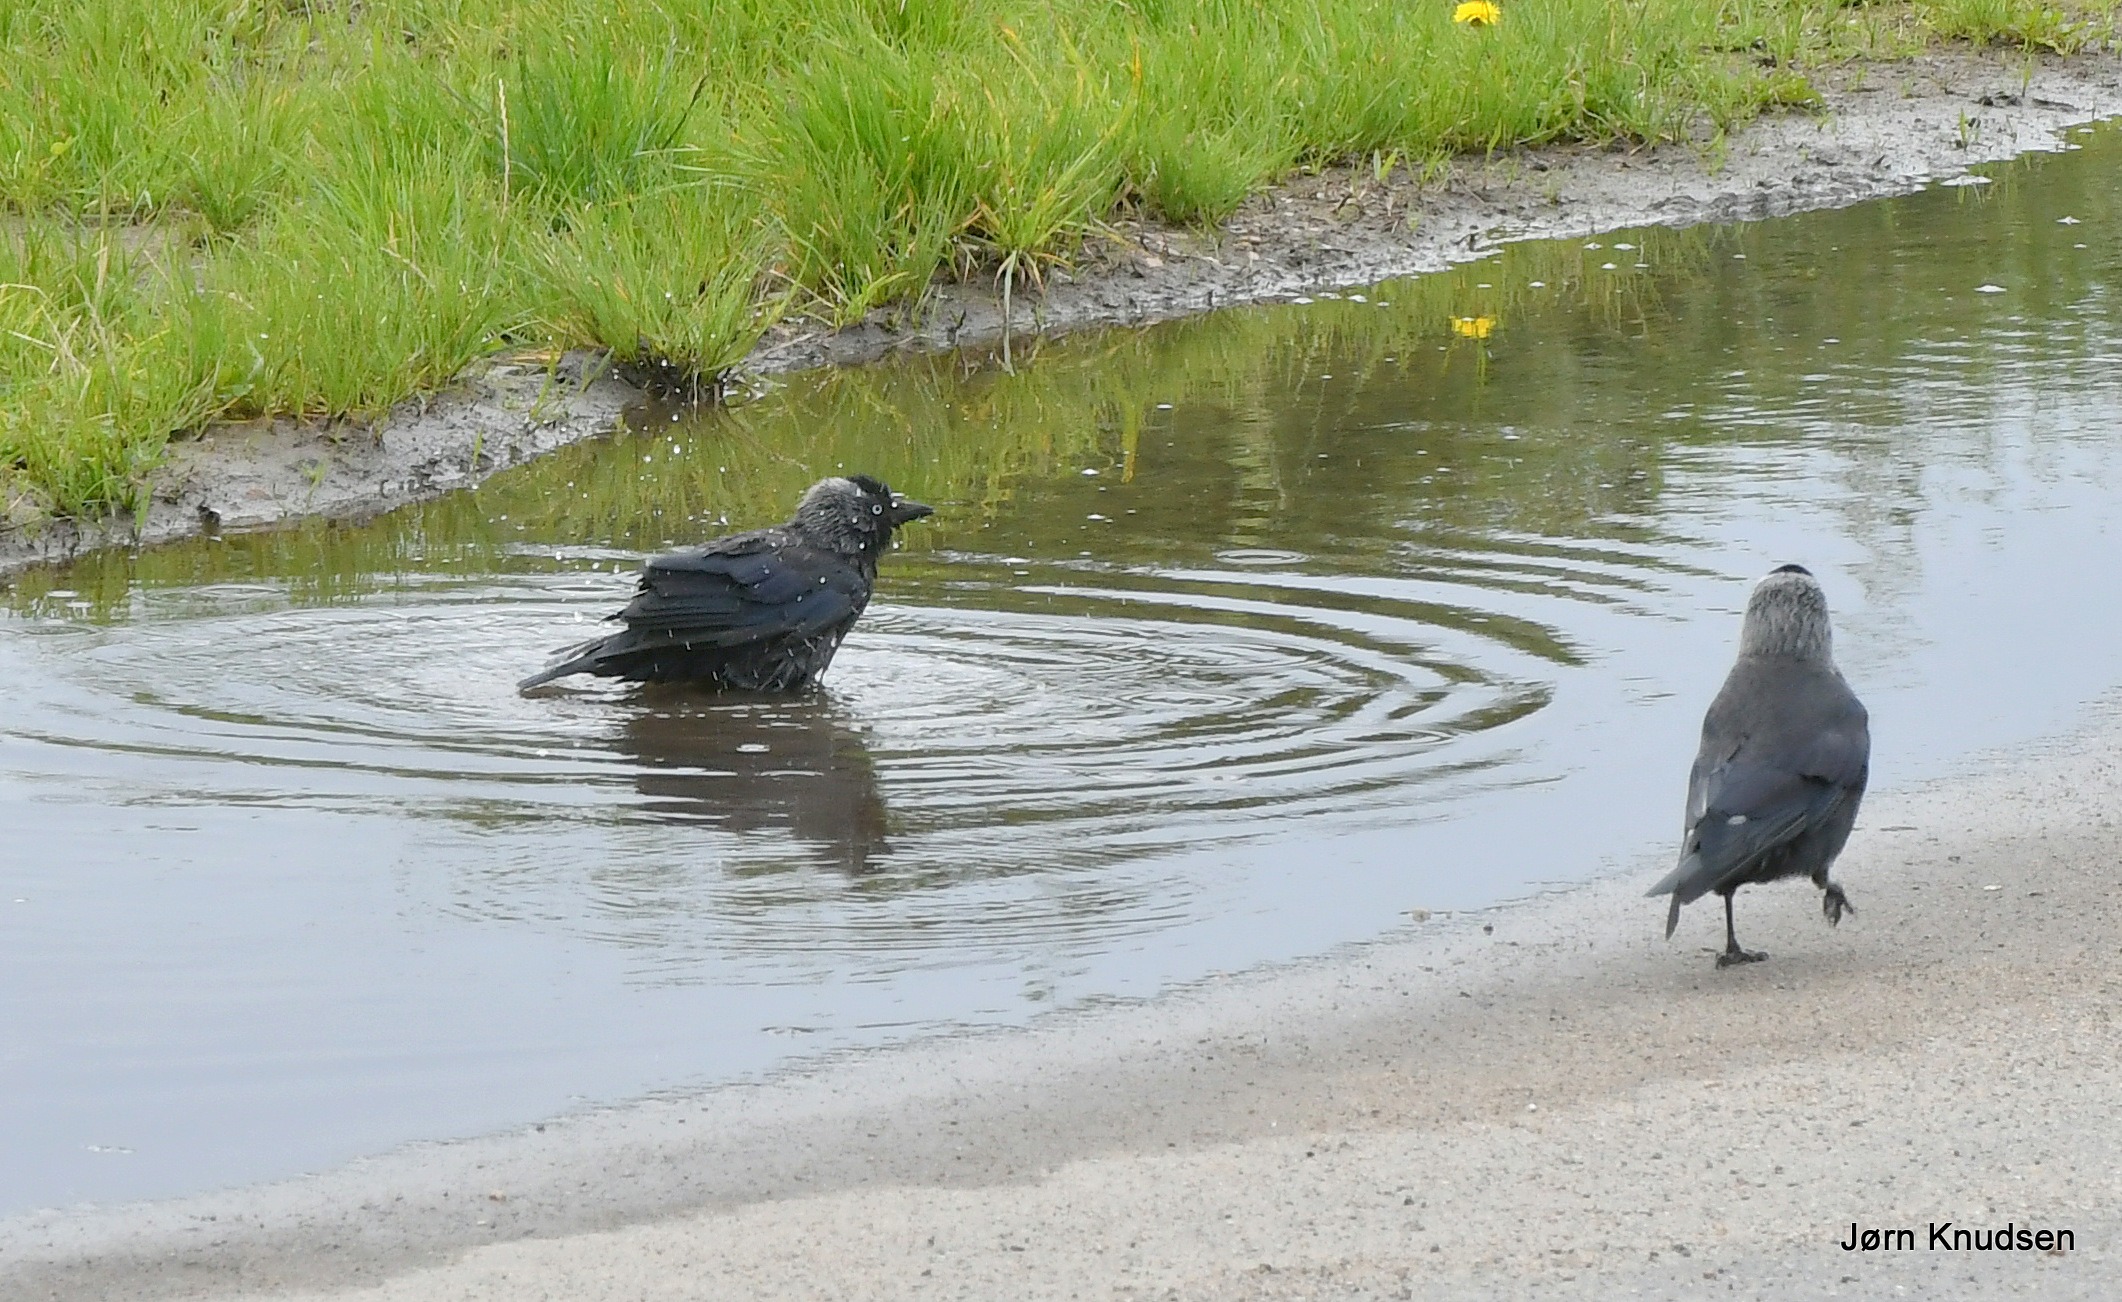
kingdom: Animalia
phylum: Chordata
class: Aves
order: Passeriformes
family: Corvidae
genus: Coloeus
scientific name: Coloeus monedula
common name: Allike
